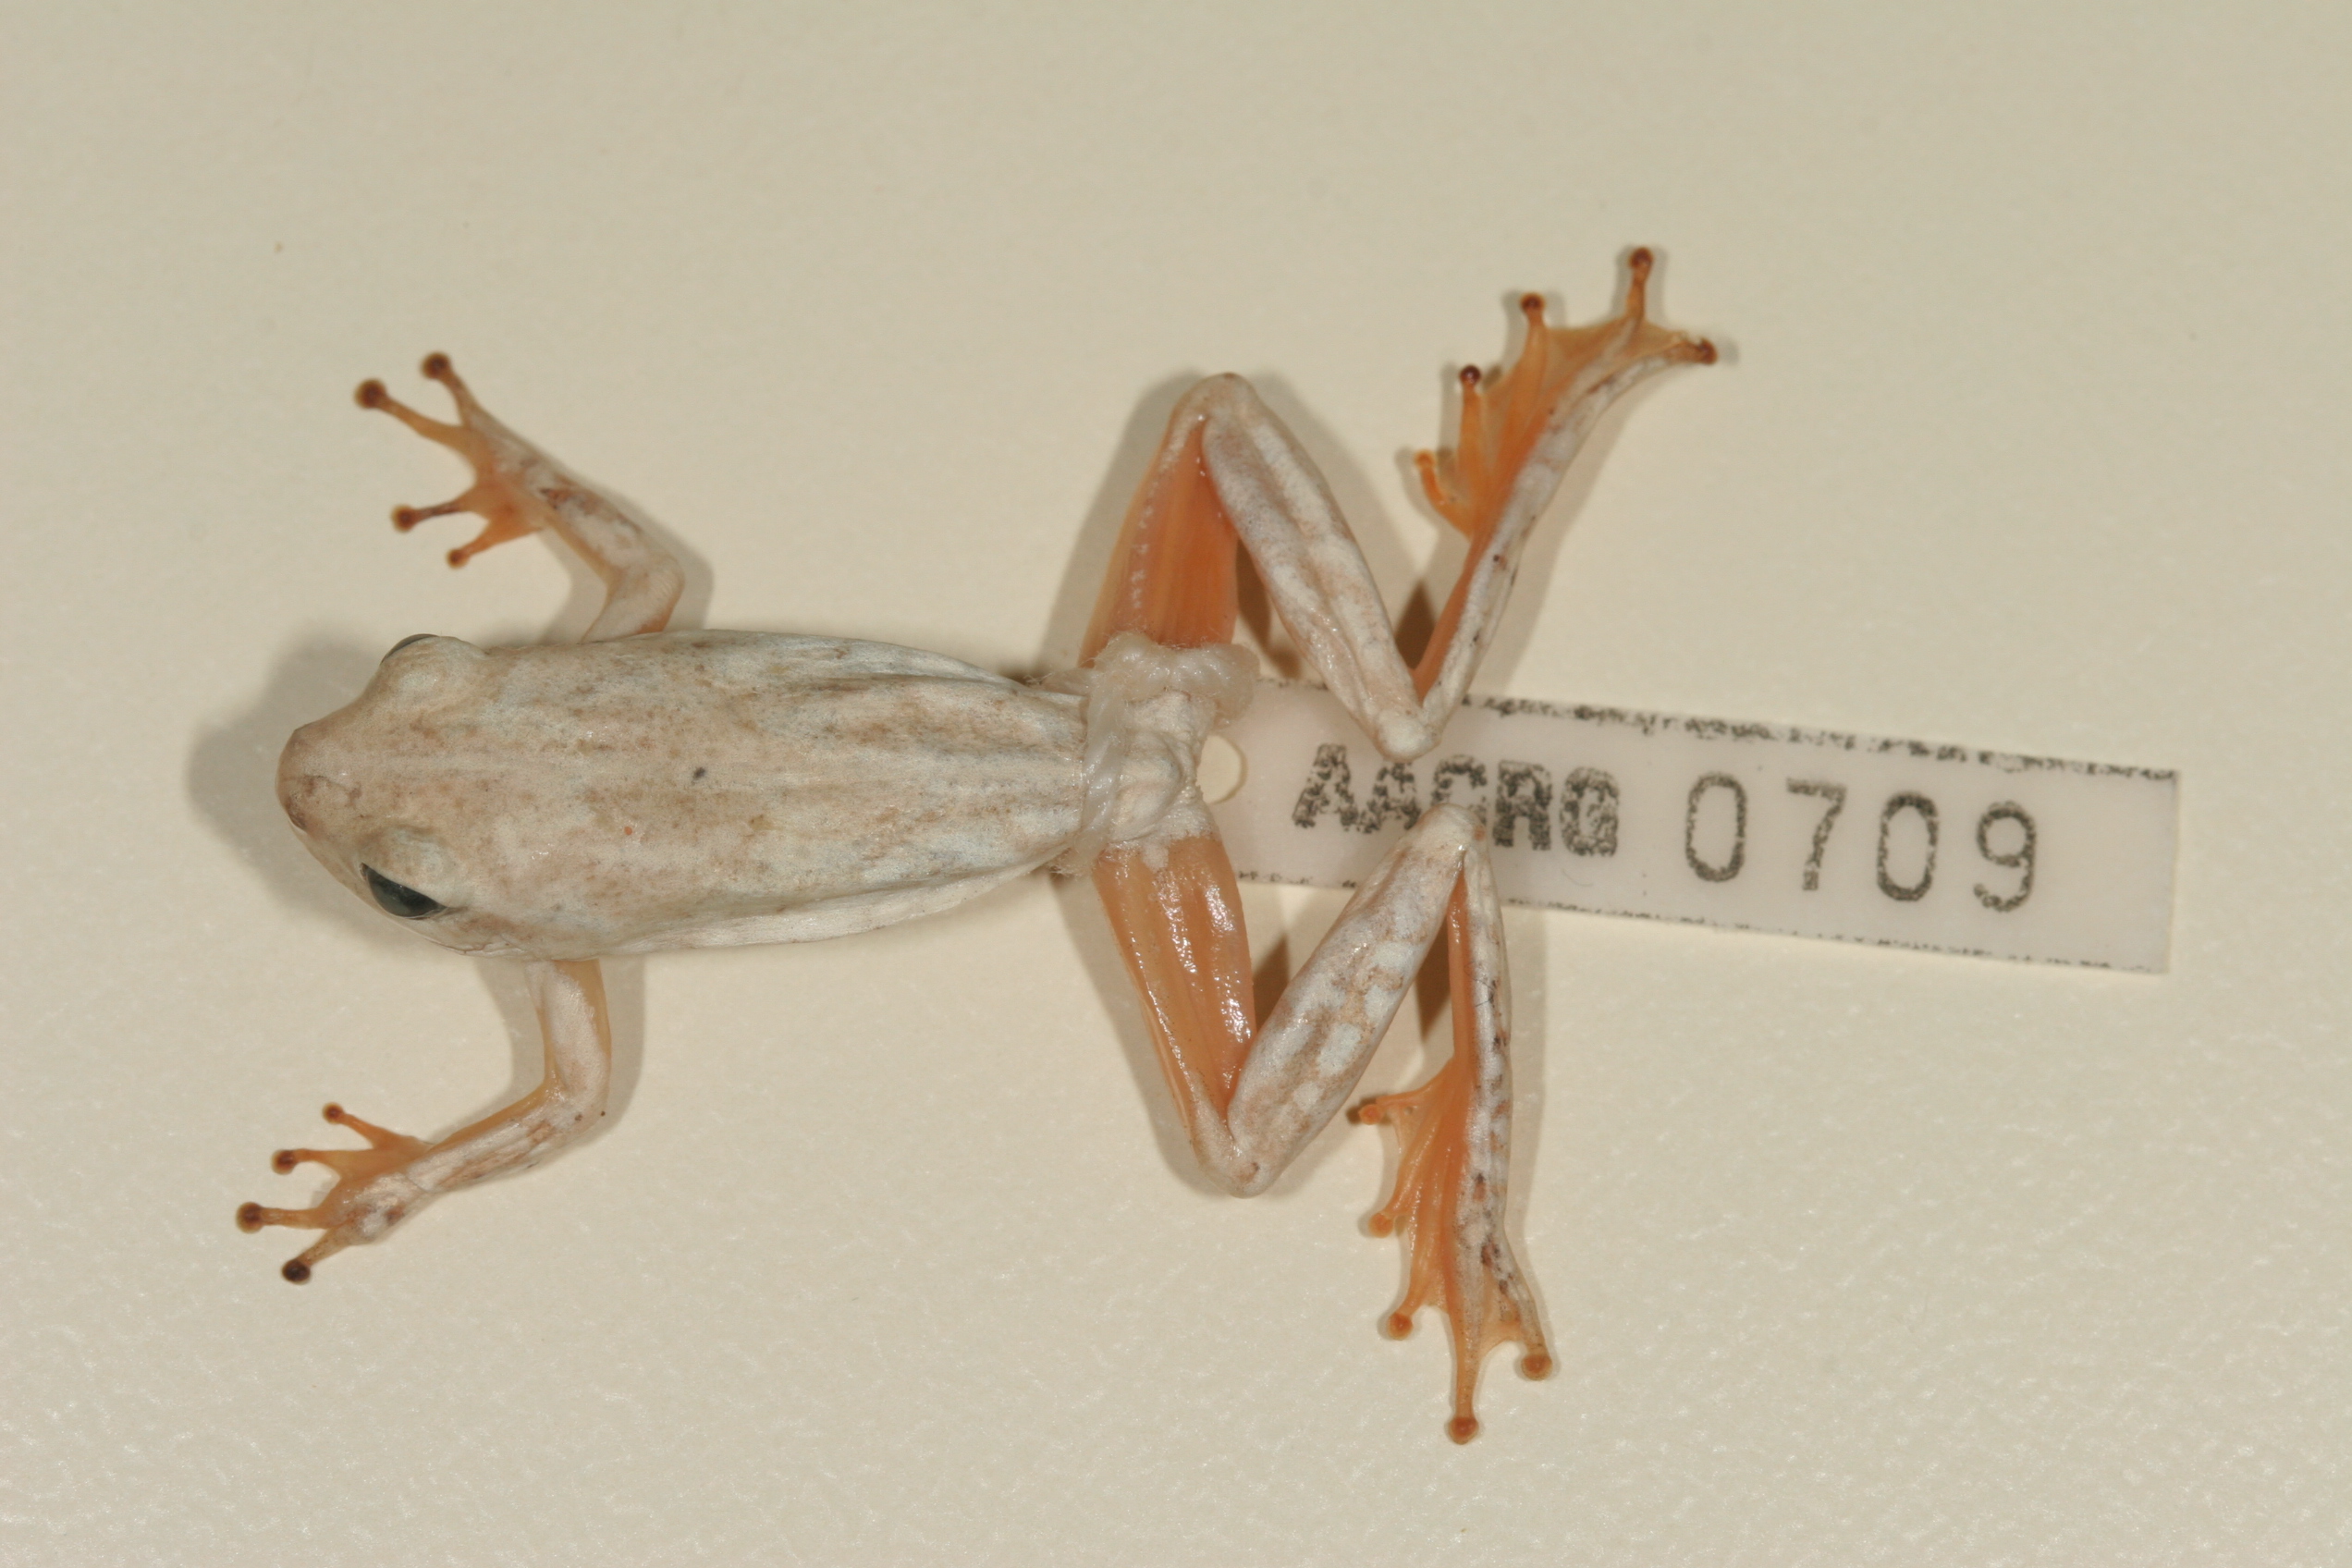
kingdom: Animalia
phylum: Chordata
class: Amphibia
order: Anura
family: Hyperoliidae
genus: Hyperolius
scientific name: Hyperolius parallelus
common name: Angolan reed frog
